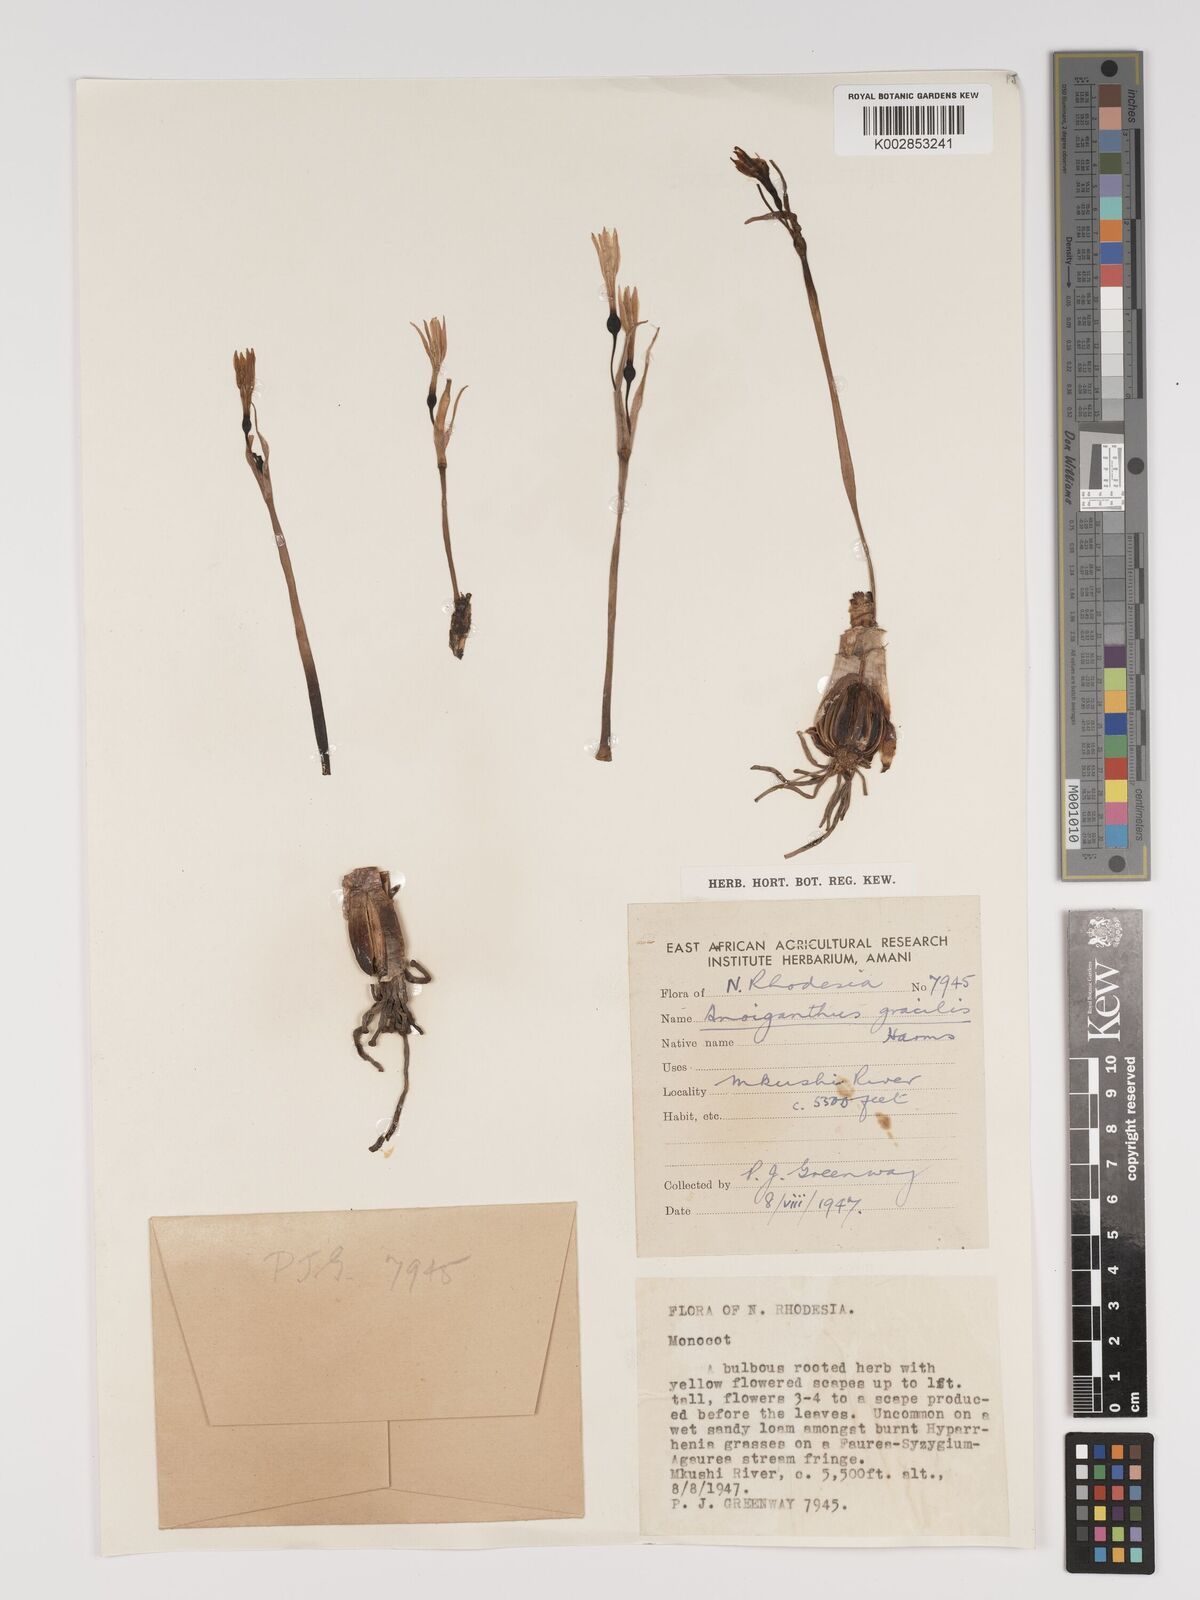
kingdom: Plantae
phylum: Tracheophyta
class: Liliopsida
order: Asparagales
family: Amaryllidaceae
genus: Cyrtanthus
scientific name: Cyrtanthus breviflorus
